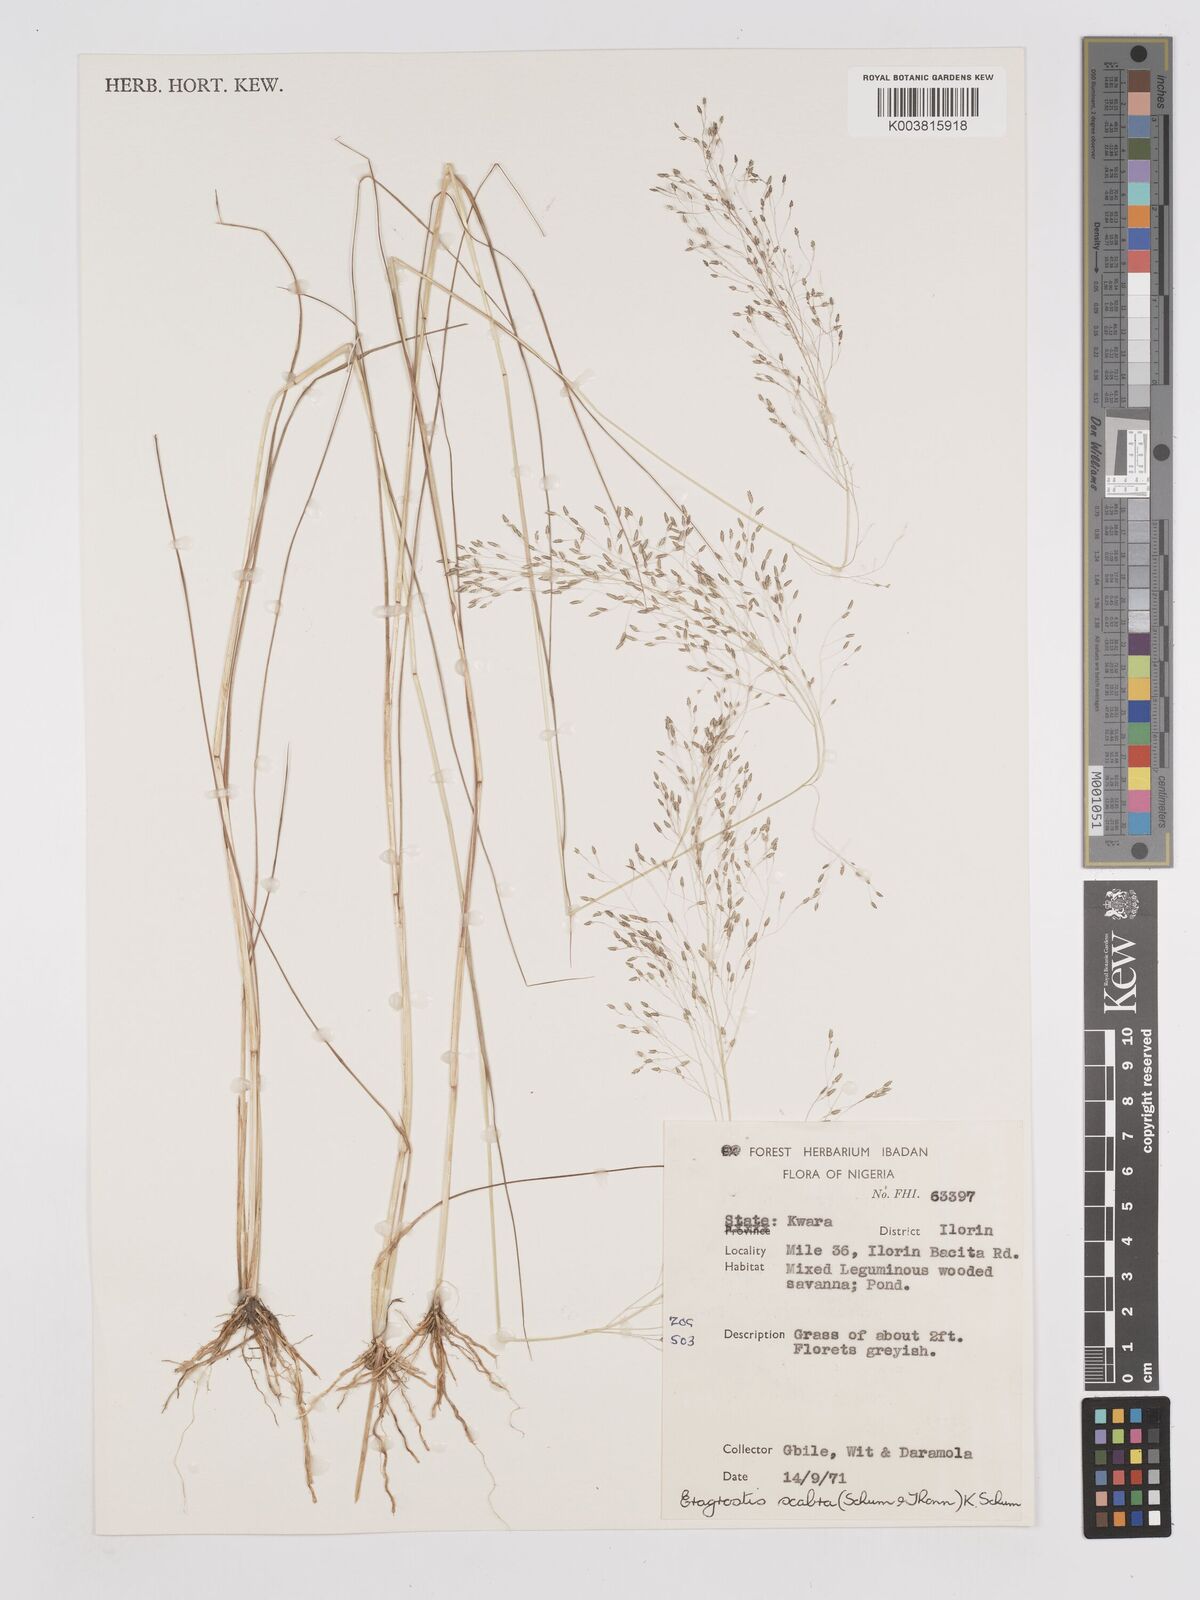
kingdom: Plantae
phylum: Tracheophyta
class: Liliopsida
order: Poales
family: Poaceae
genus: Eragrostis
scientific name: Eragrostis gangetica
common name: Slimflower lovegrass
